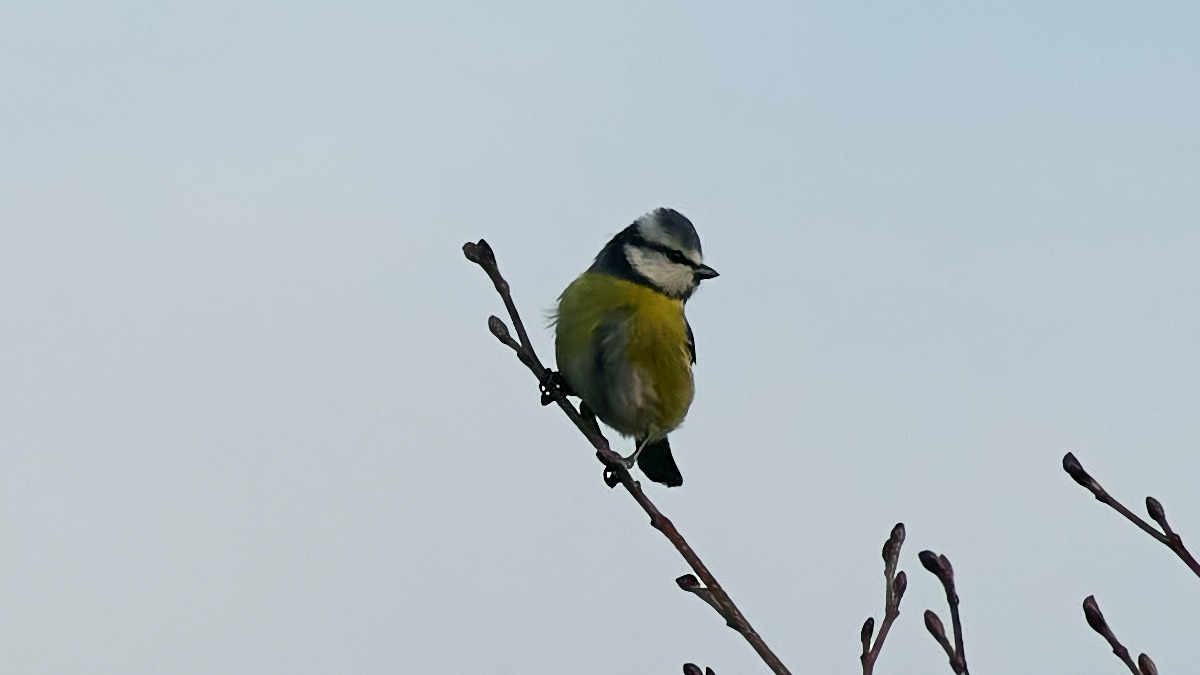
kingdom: Animalia
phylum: Chordata
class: Aves
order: Passeriformes
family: Paridae
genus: Cyanistes
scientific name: Cyanistes caeruleus
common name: Blåmejse
